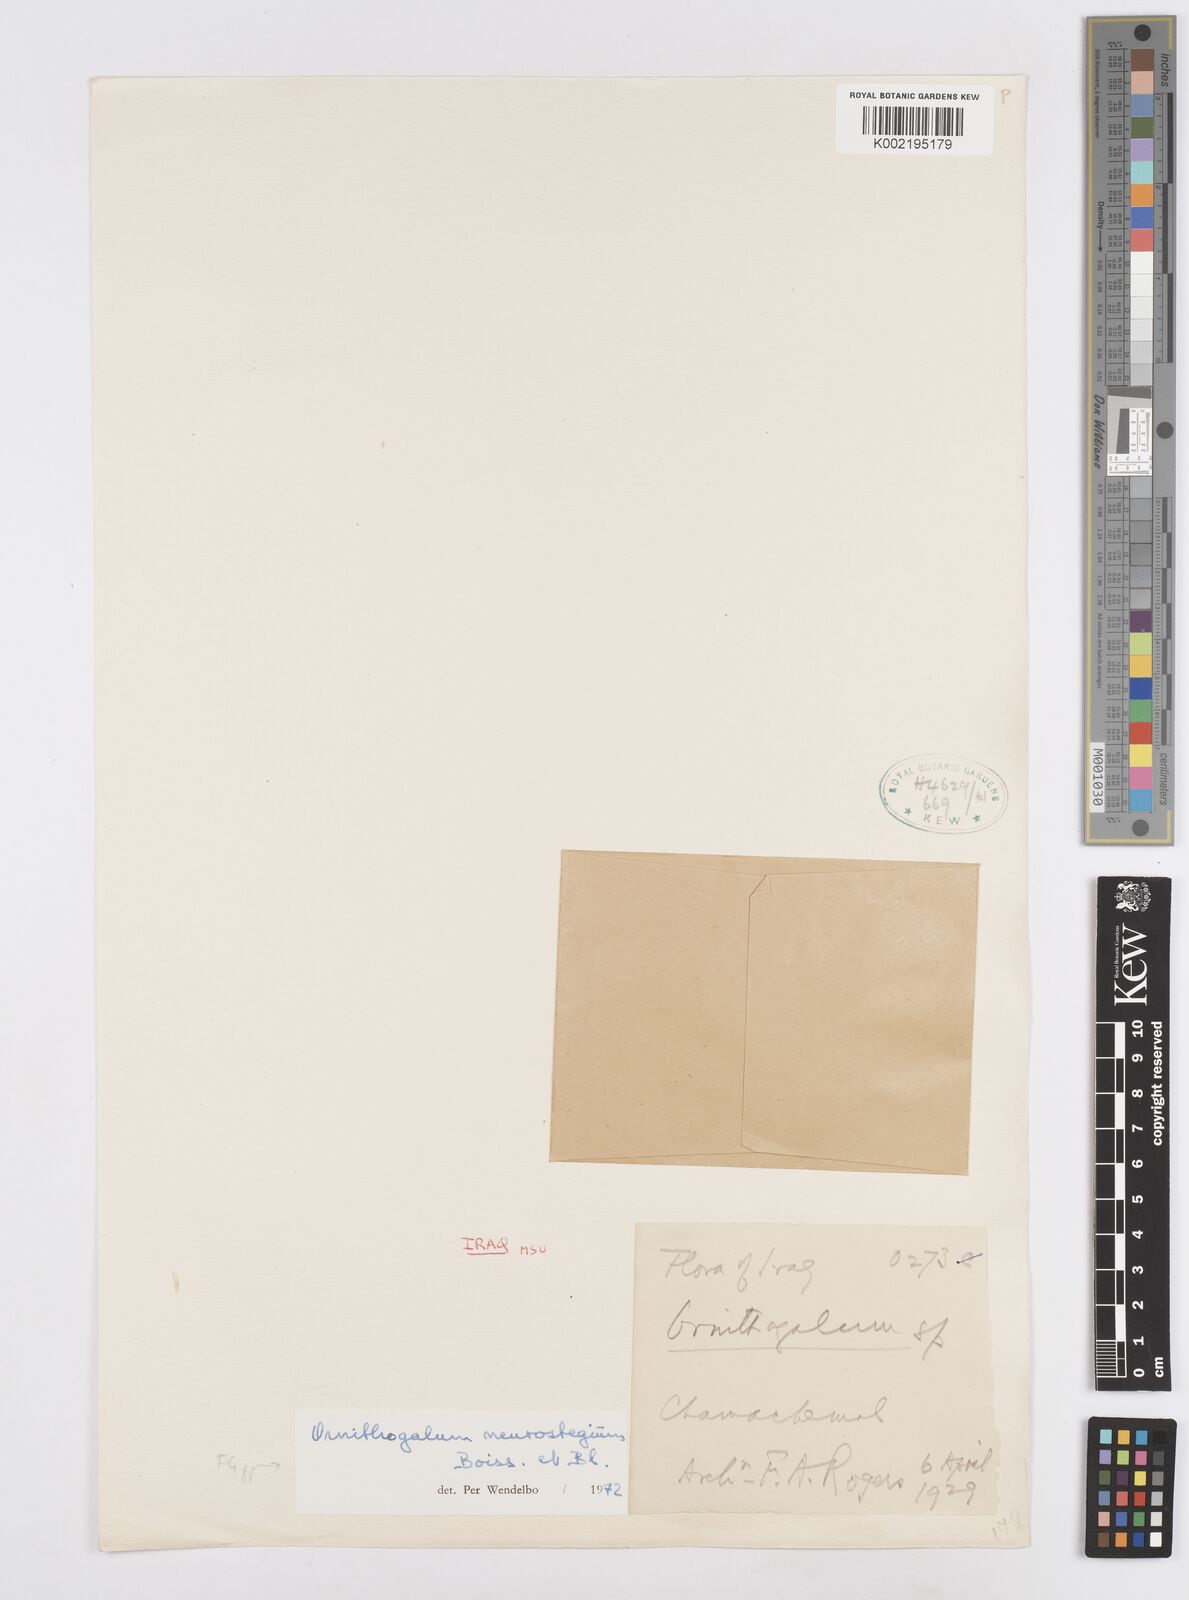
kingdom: Plantae
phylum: Tracheophyta
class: Liliopsida
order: Asparagales
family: Asparagaceae
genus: Ornithogalum
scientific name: Ornithogalum neurostegium
